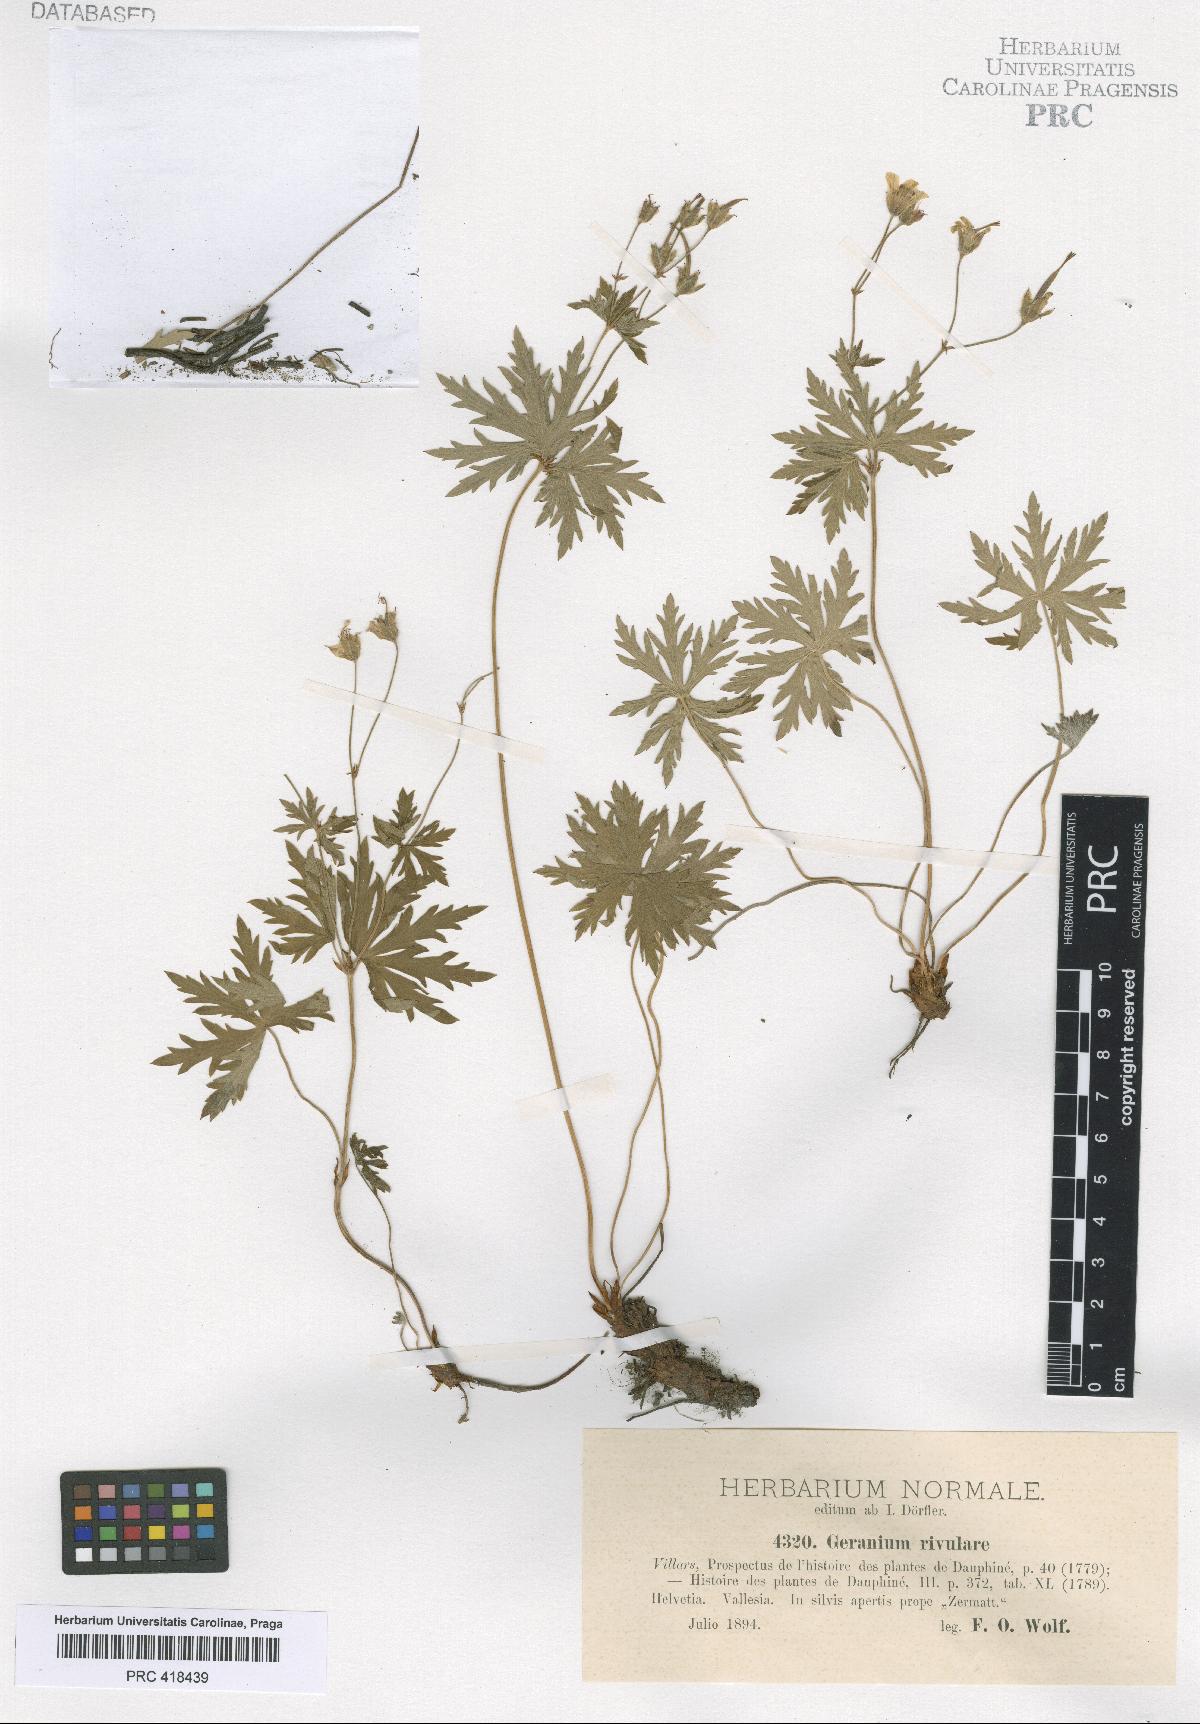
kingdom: Plantae
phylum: Tracheophyta
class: Magnoliopsida
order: Geraniales
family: Geraniaceae
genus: Geranium
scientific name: Geranium rivulare
